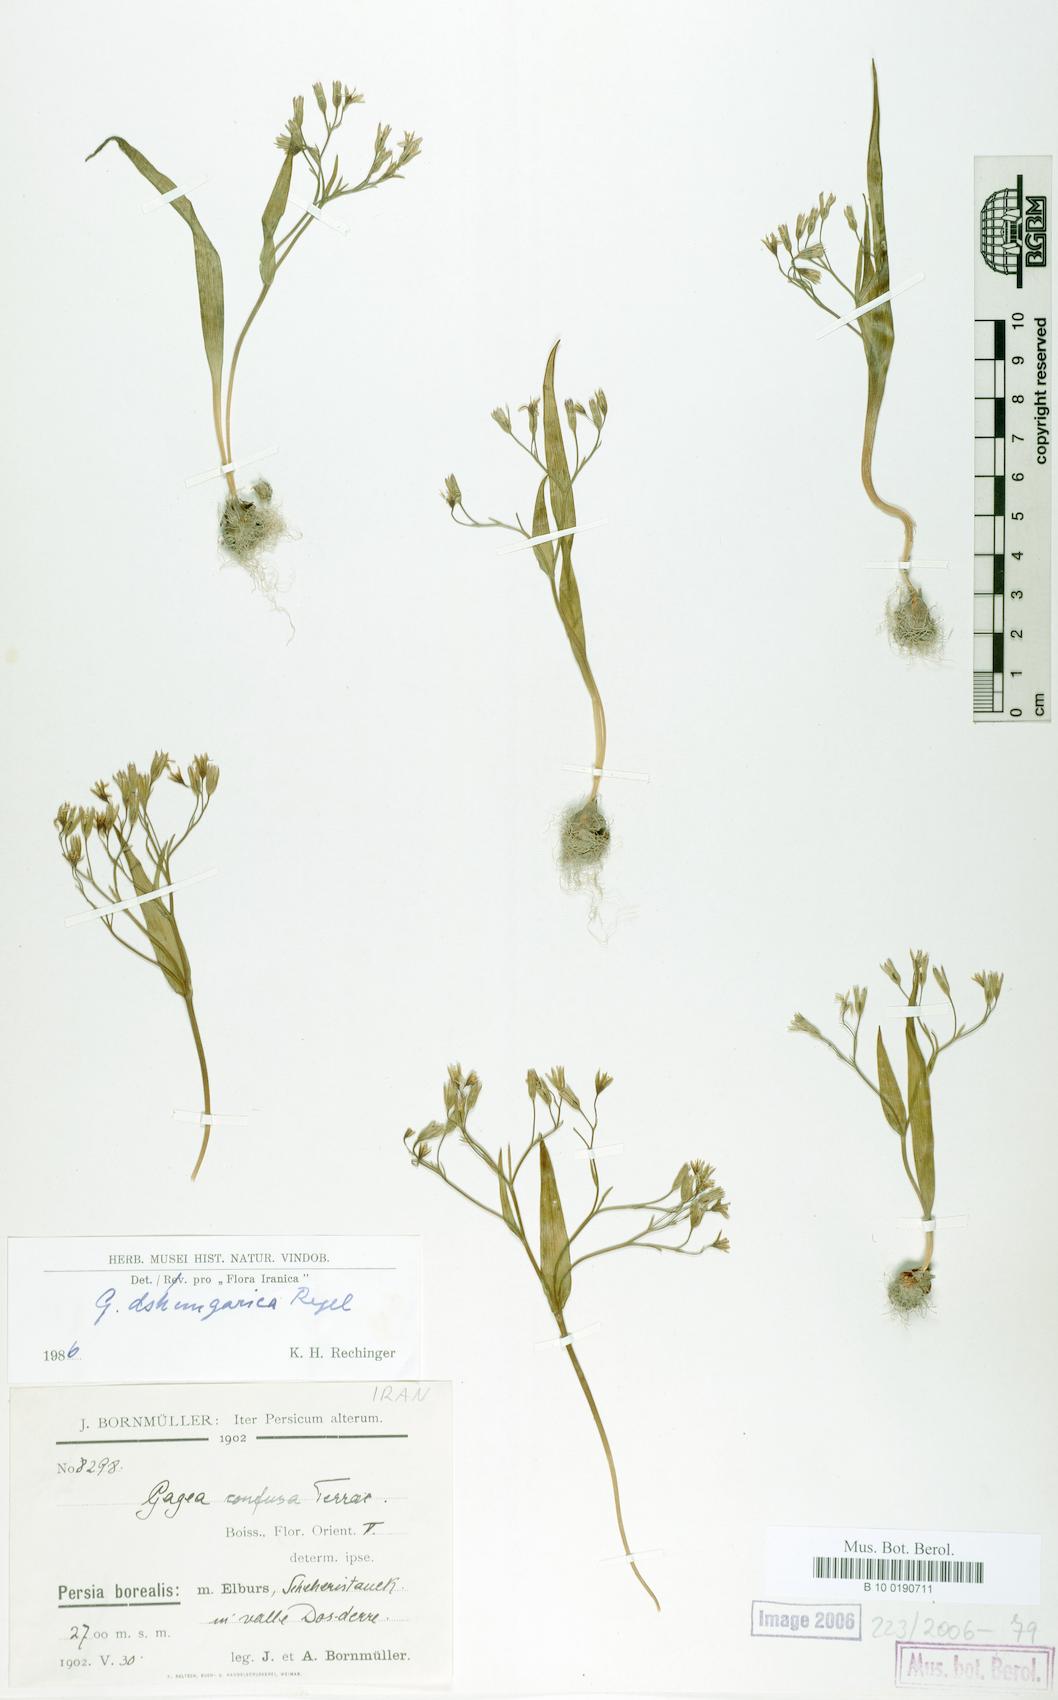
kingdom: Plantae
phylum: Tracheophyta
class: Liliopsida
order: Liliales
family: Liliaceae
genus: Gagea
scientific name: Gagea dschungarica
